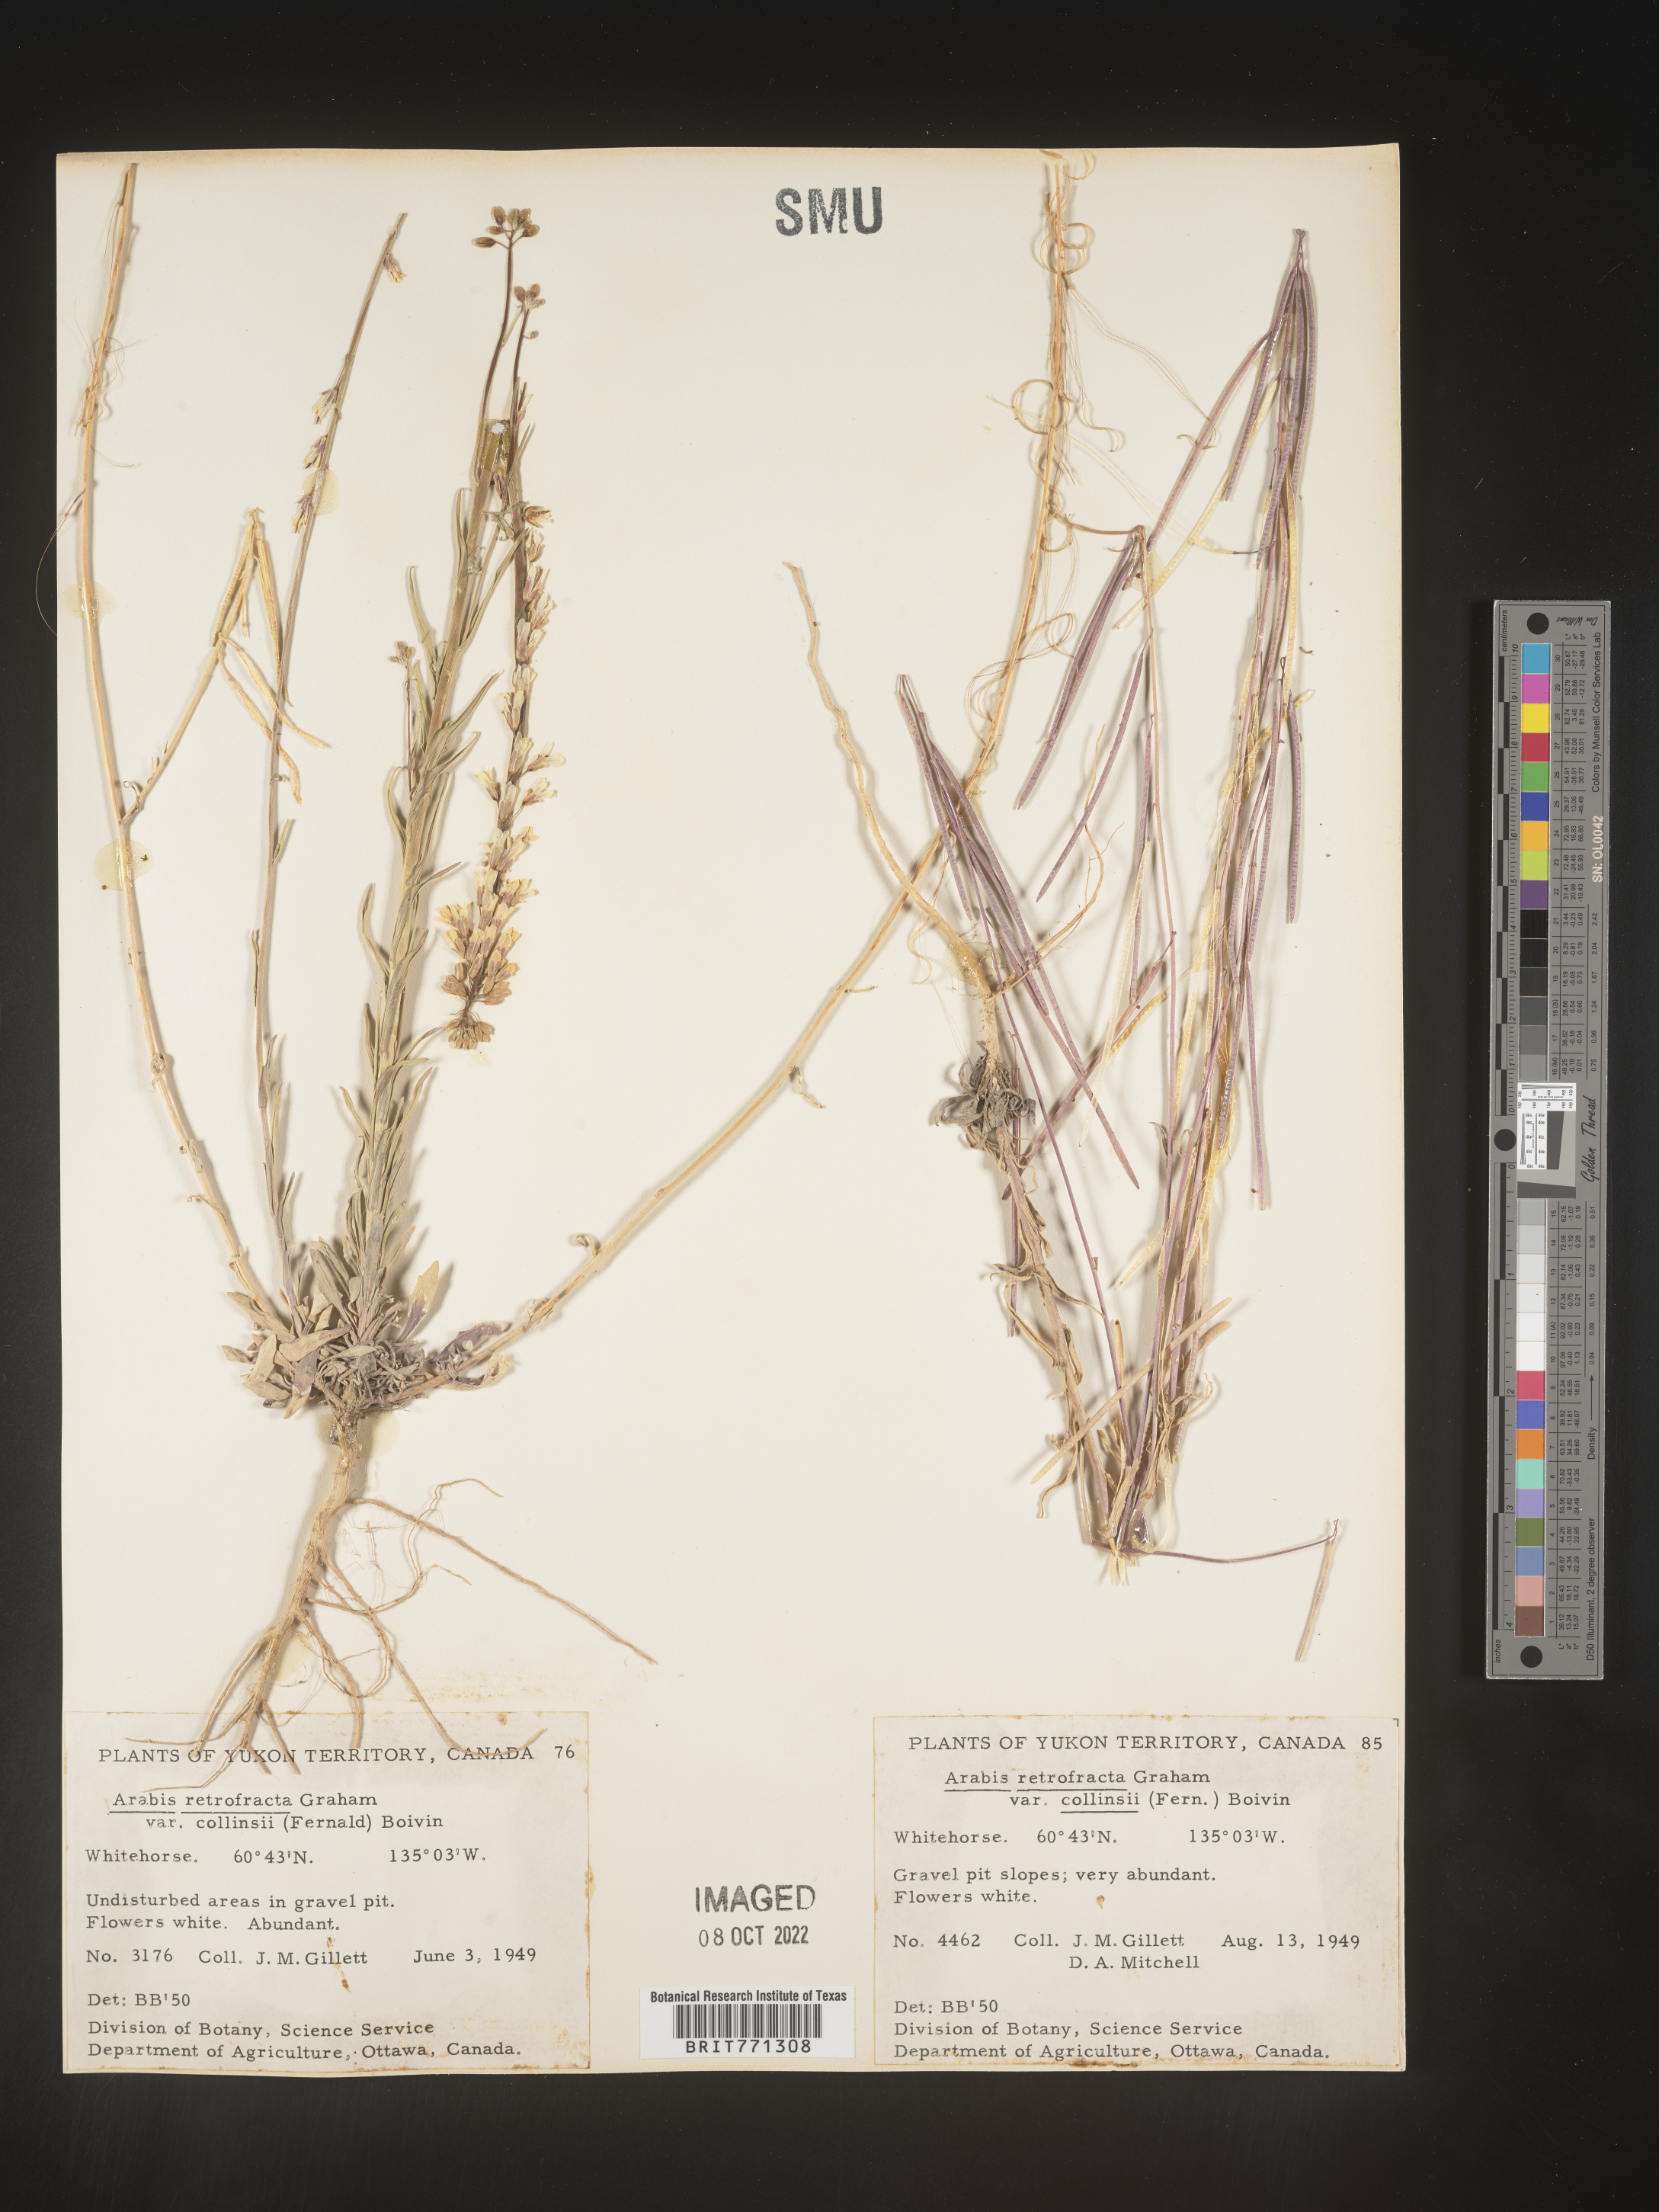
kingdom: Plantae
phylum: Tracheophyta
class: Magnoliopsida
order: Brassicales
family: Brassicaceae
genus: Arabis
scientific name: Arabis
